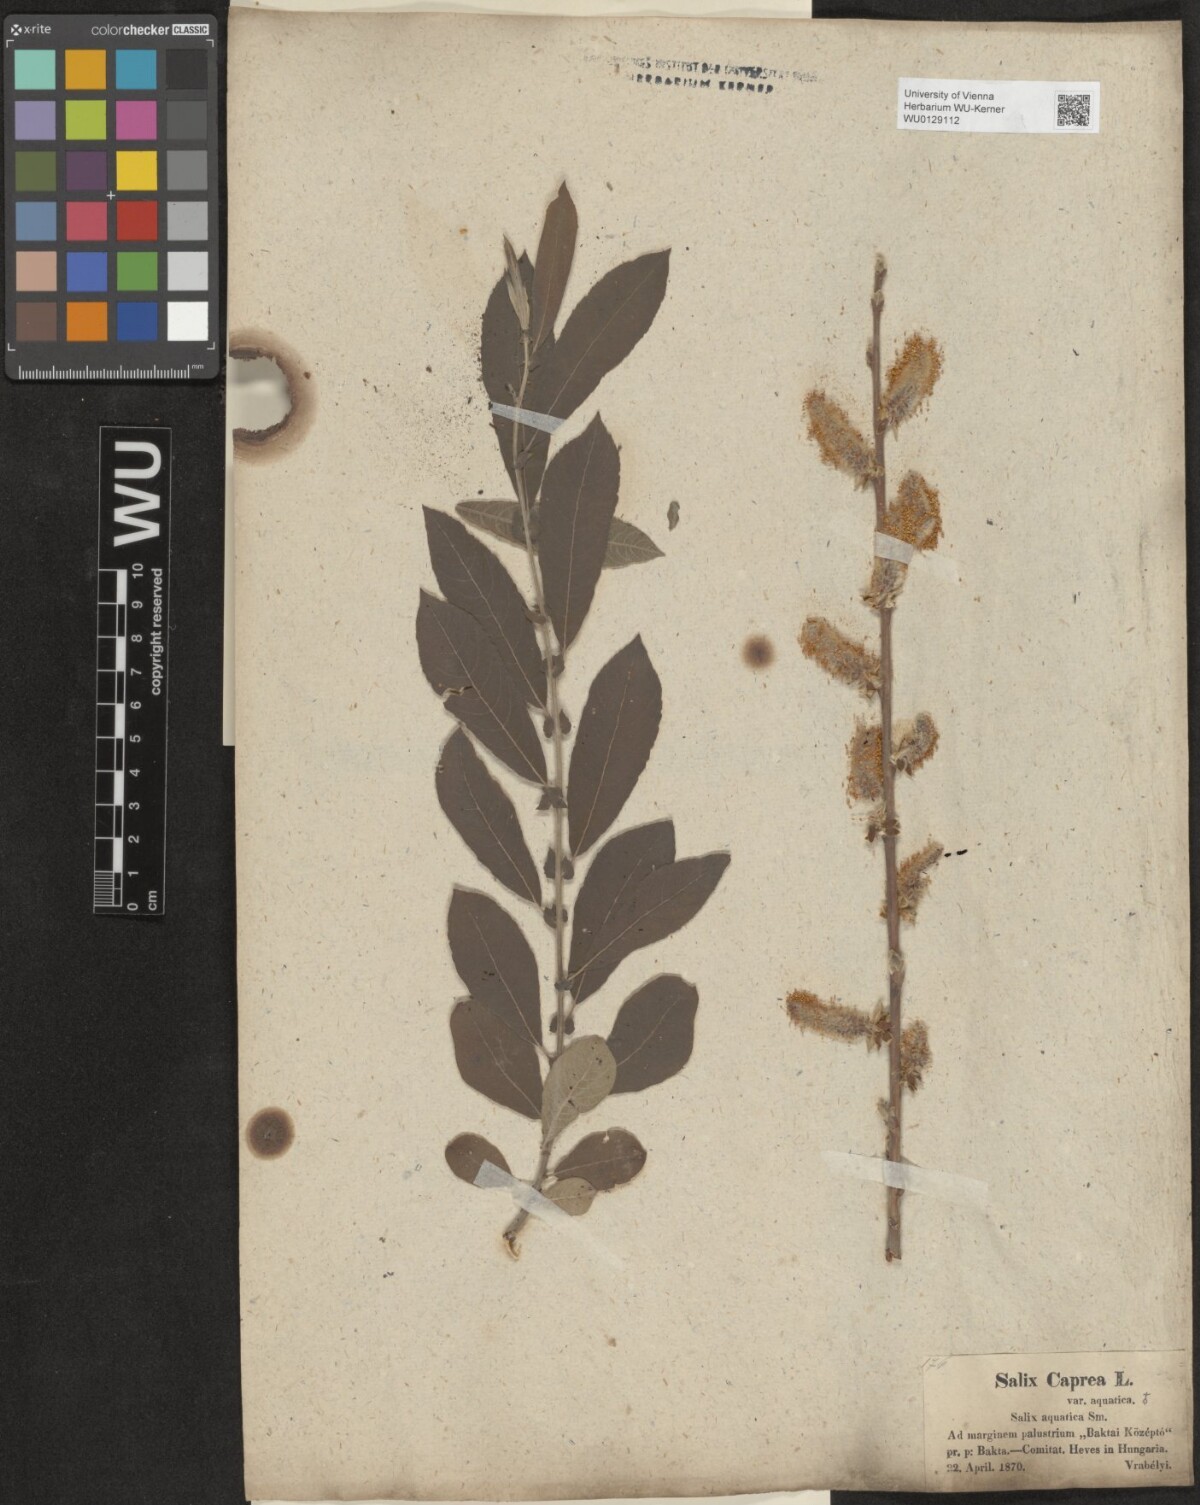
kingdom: Plantae
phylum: Tracheophyta
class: Magnoliopsida
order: Malpighiales
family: Salicaceae
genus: Salix
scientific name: Salix cinerea
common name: Common sallow
